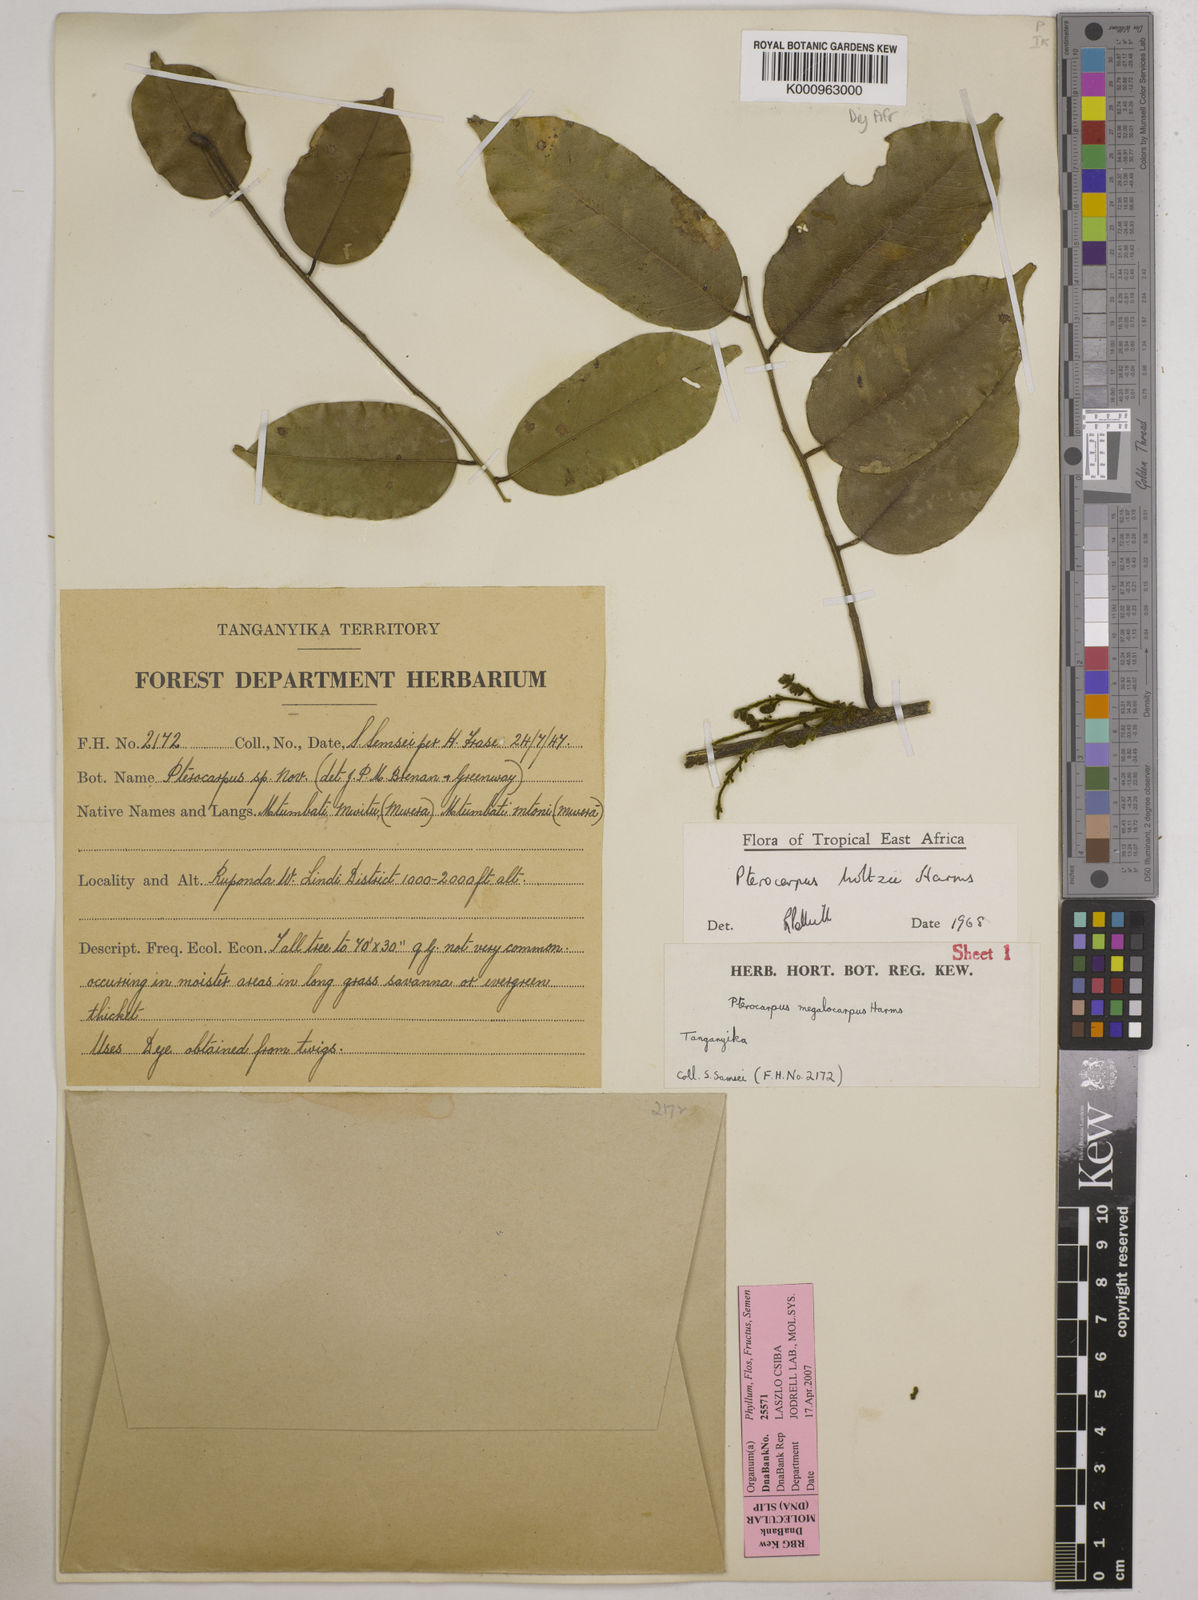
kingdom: Plantae
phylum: Tracheophyta
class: Magnoliopsida
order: Fabales
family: Fabaceae
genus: Pterocarpus
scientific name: Pterocarpus tinctorius
